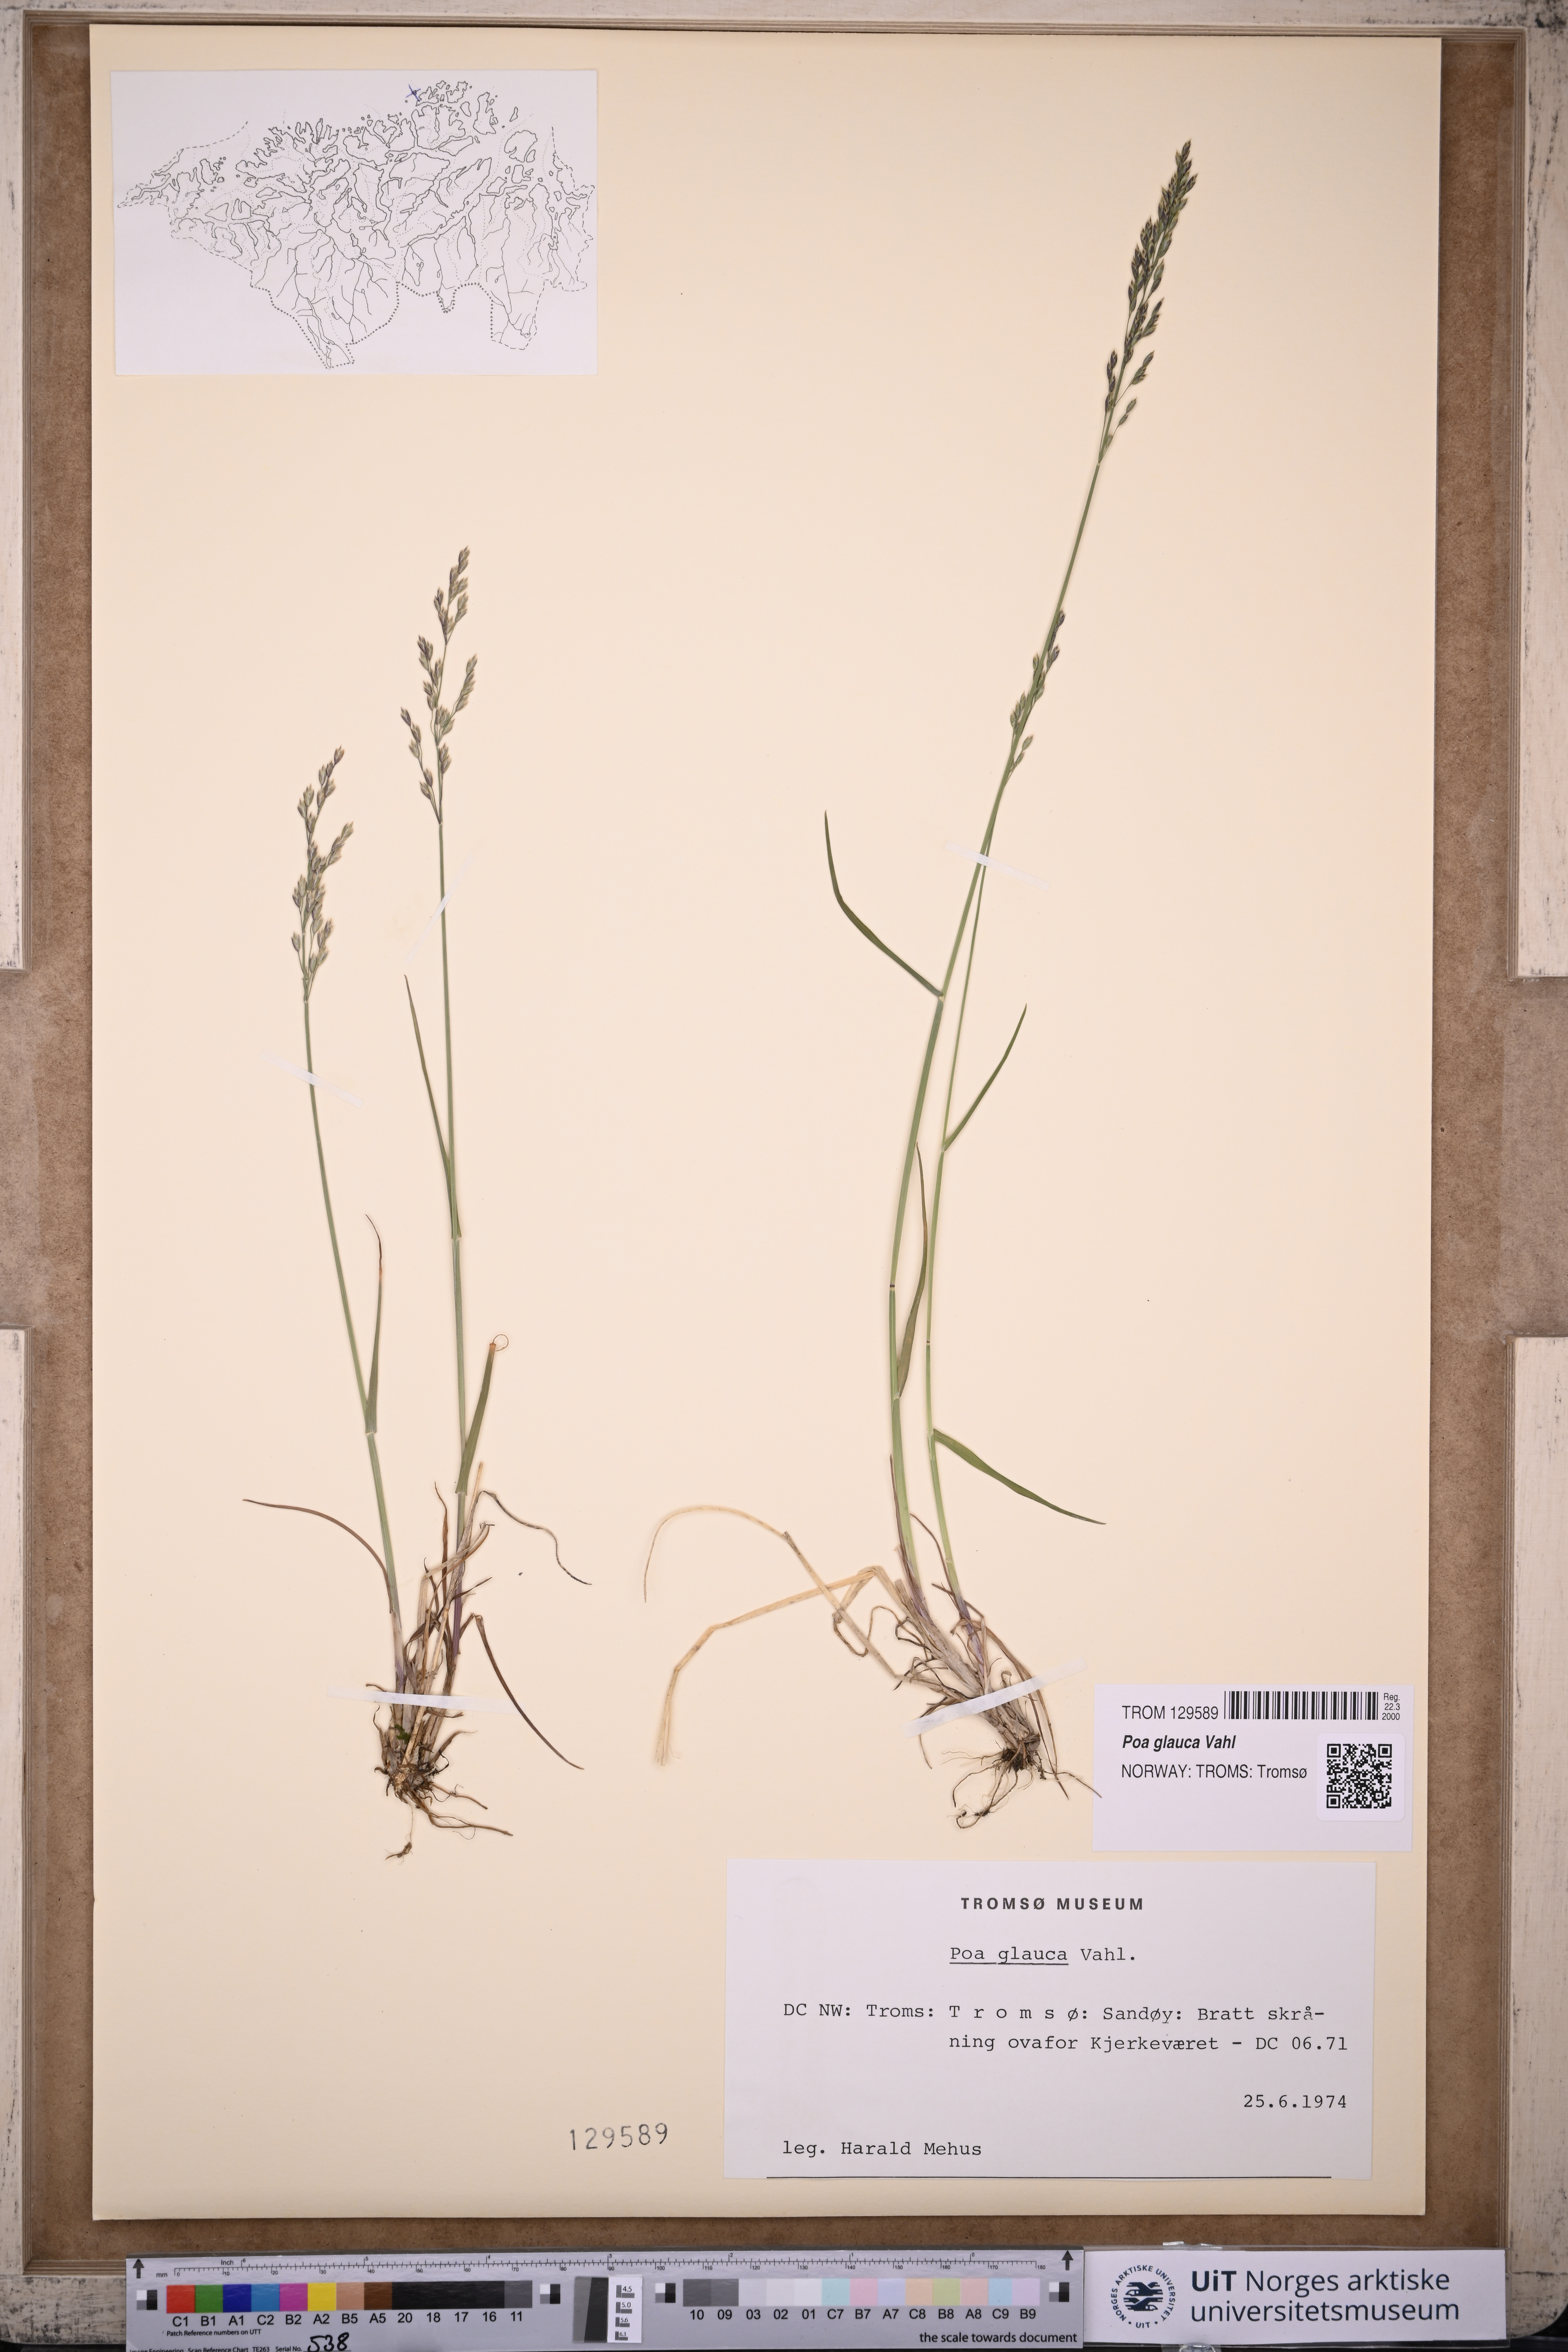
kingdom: Plantae
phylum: Tracheophyta
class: Liliopsida
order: Poales
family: Poaceae
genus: Poa
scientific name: Poa glauca
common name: Glaucous bluegrass
